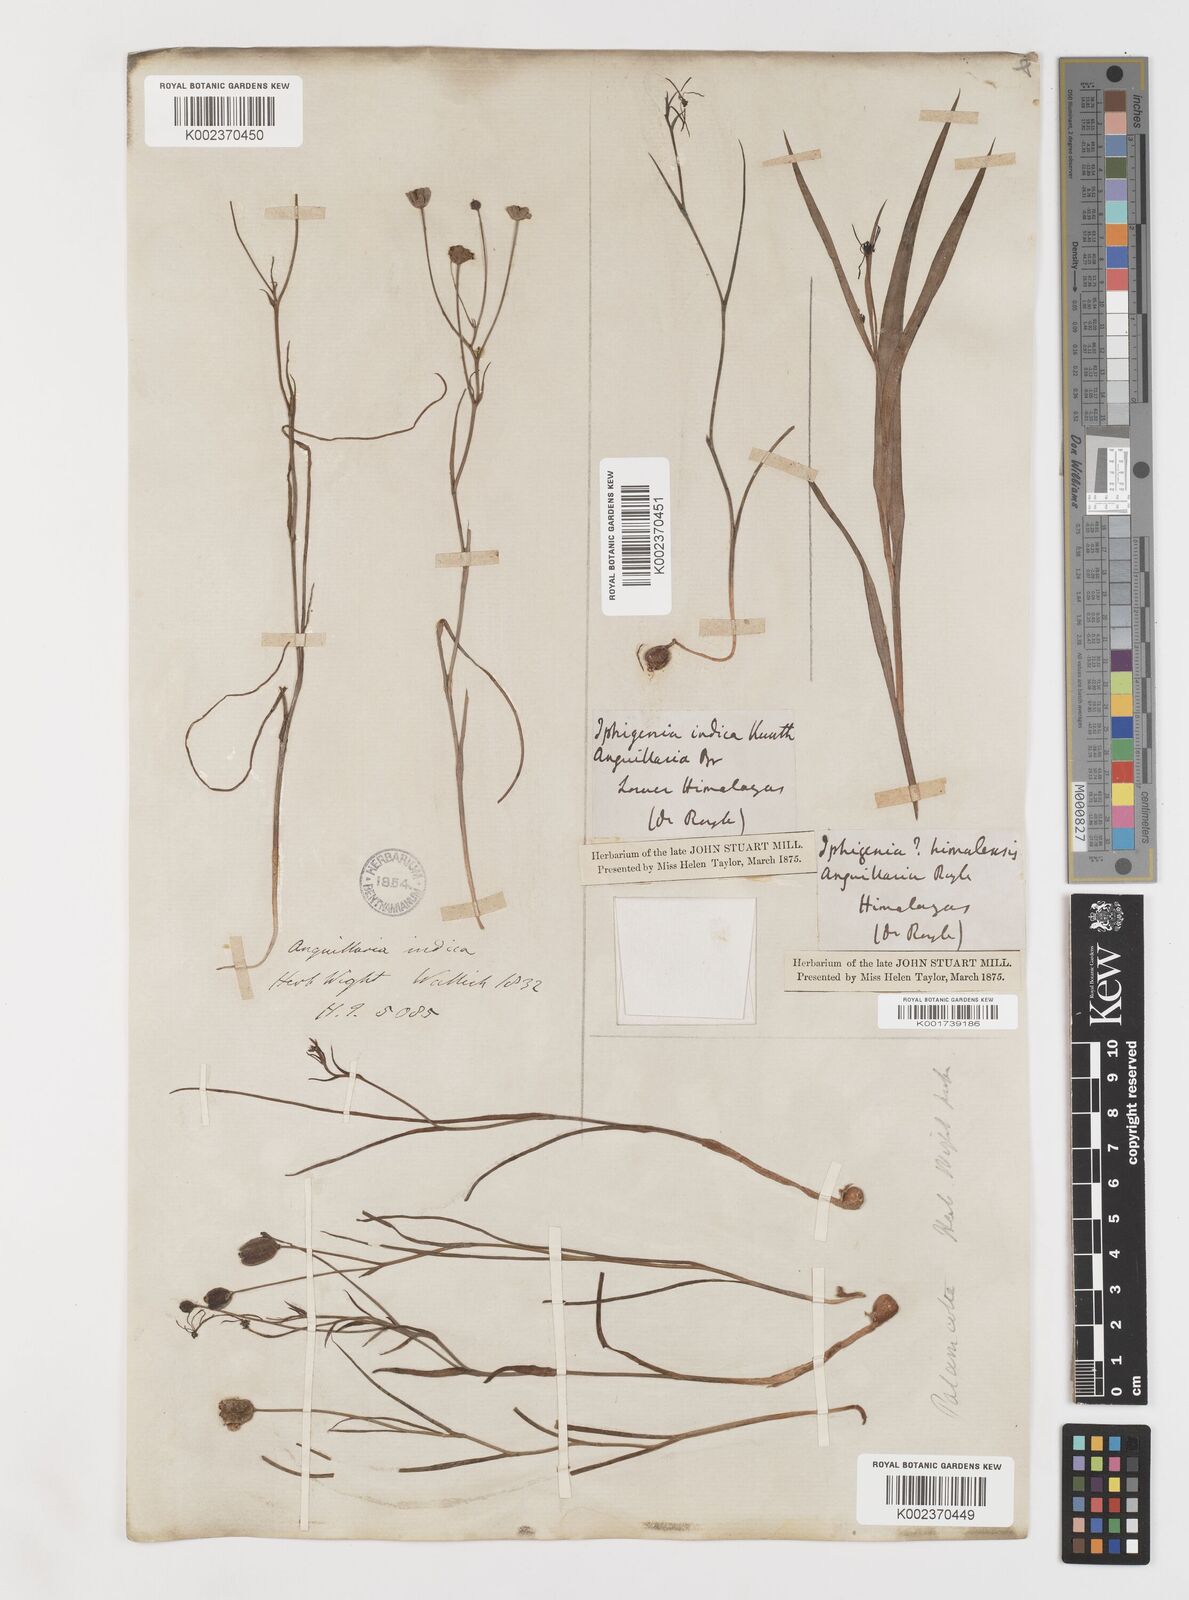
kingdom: Plantae
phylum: Tracheophyta
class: Liliopsida
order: Liliales
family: Colchicaceae
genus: Iphigenia
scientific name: Iphigenia indica
